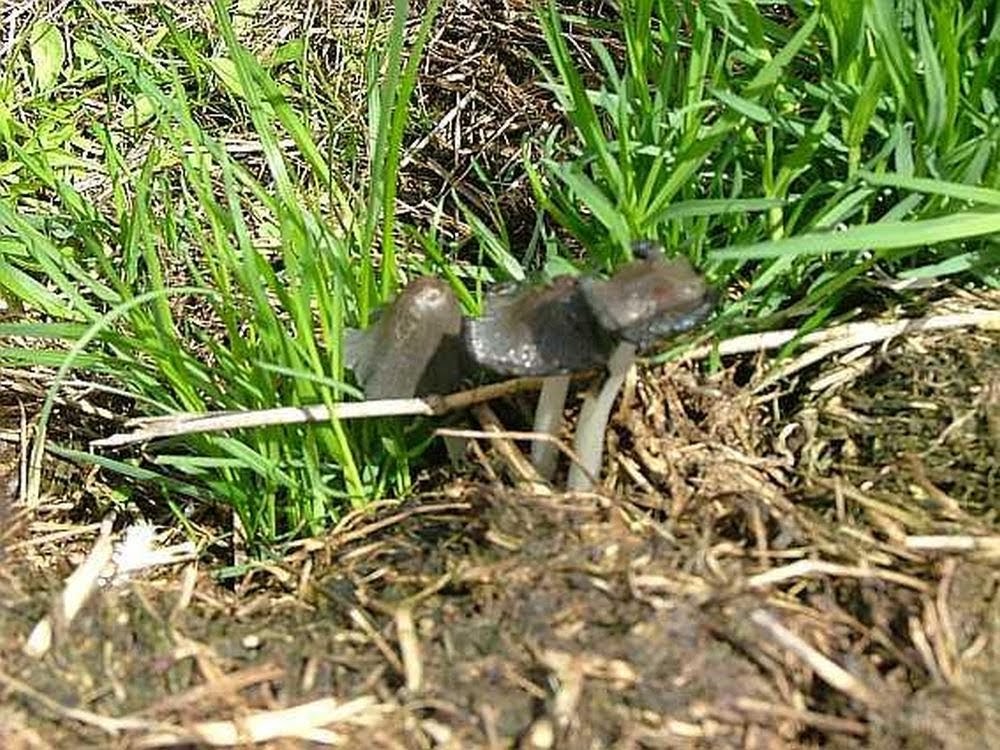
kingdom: Fungi
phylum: Basidiomycota
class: Agaricomycetes
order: Agaricales
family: Psathyrellaceae
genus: Coprinopsis
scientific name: Coprinopsis
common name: blækhat
